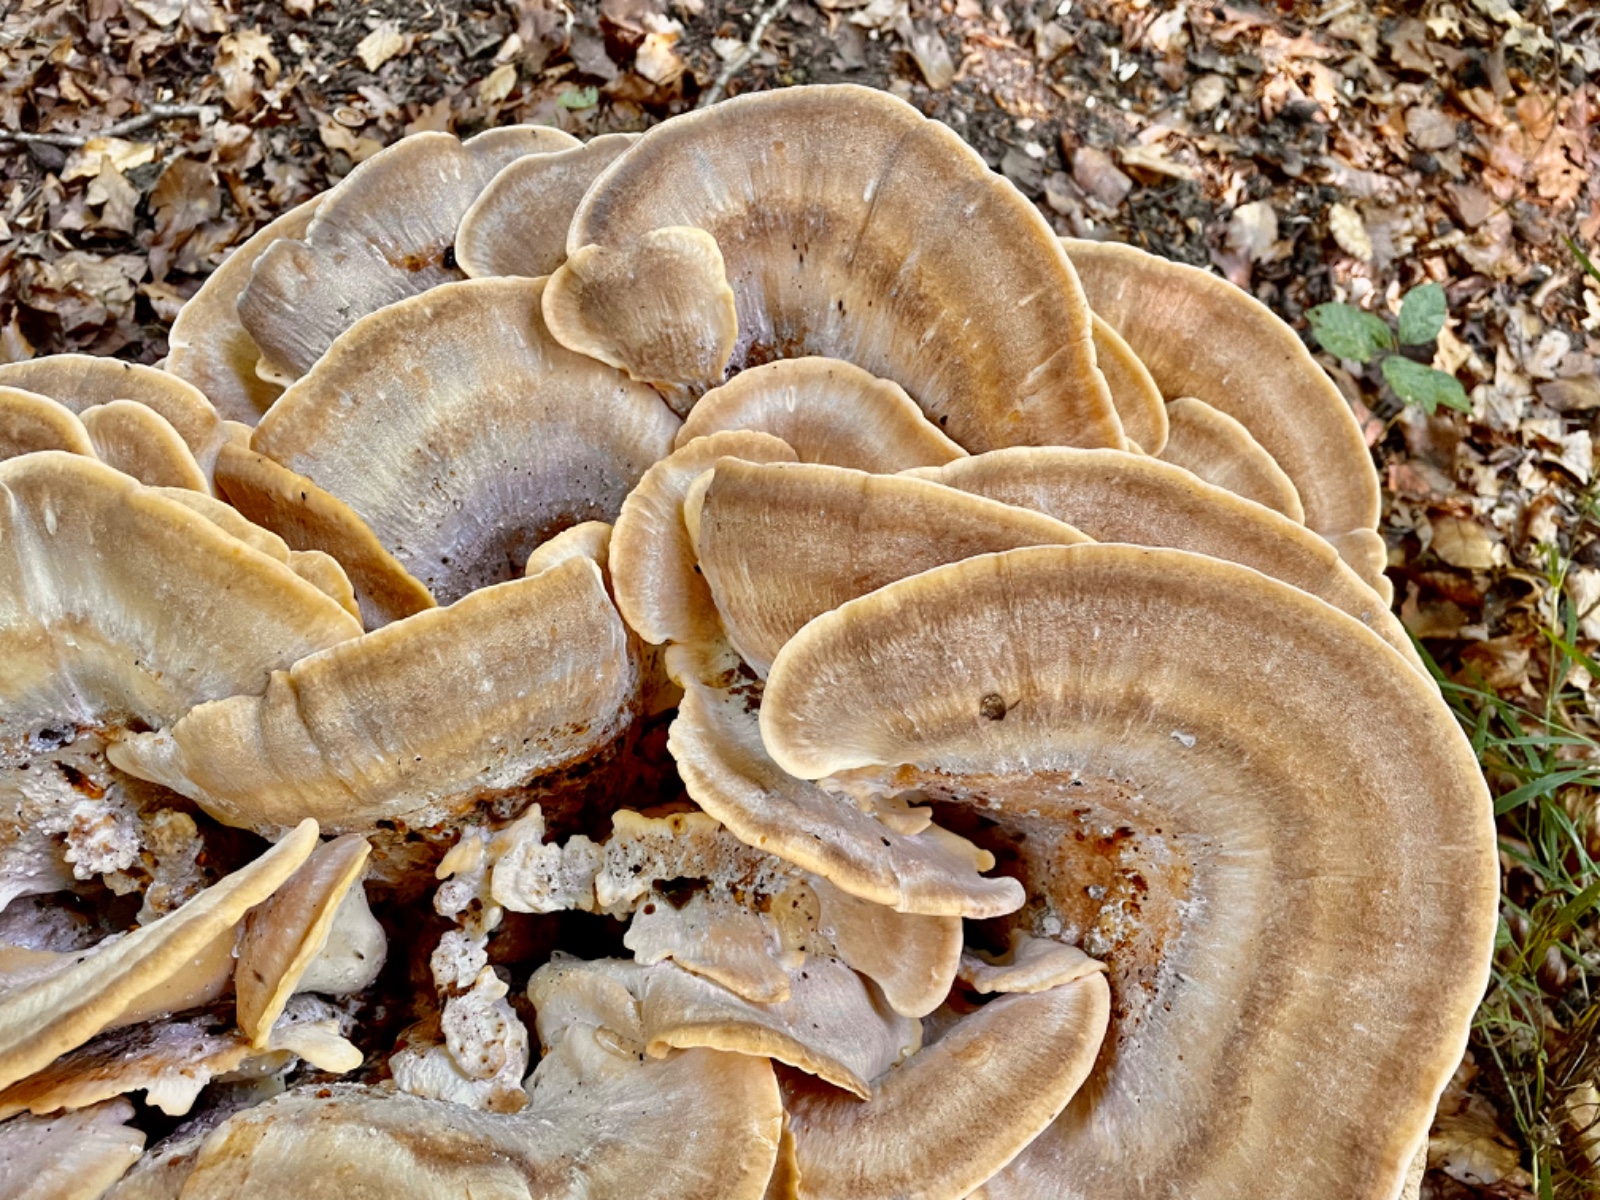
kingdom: Fungi
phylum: Basidiomycota
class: Agaricomycetes
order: Polyporales
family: Meripilaceae
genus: Meripilus
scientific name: Meripilus giganteus
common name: kæmpeporesvamp
